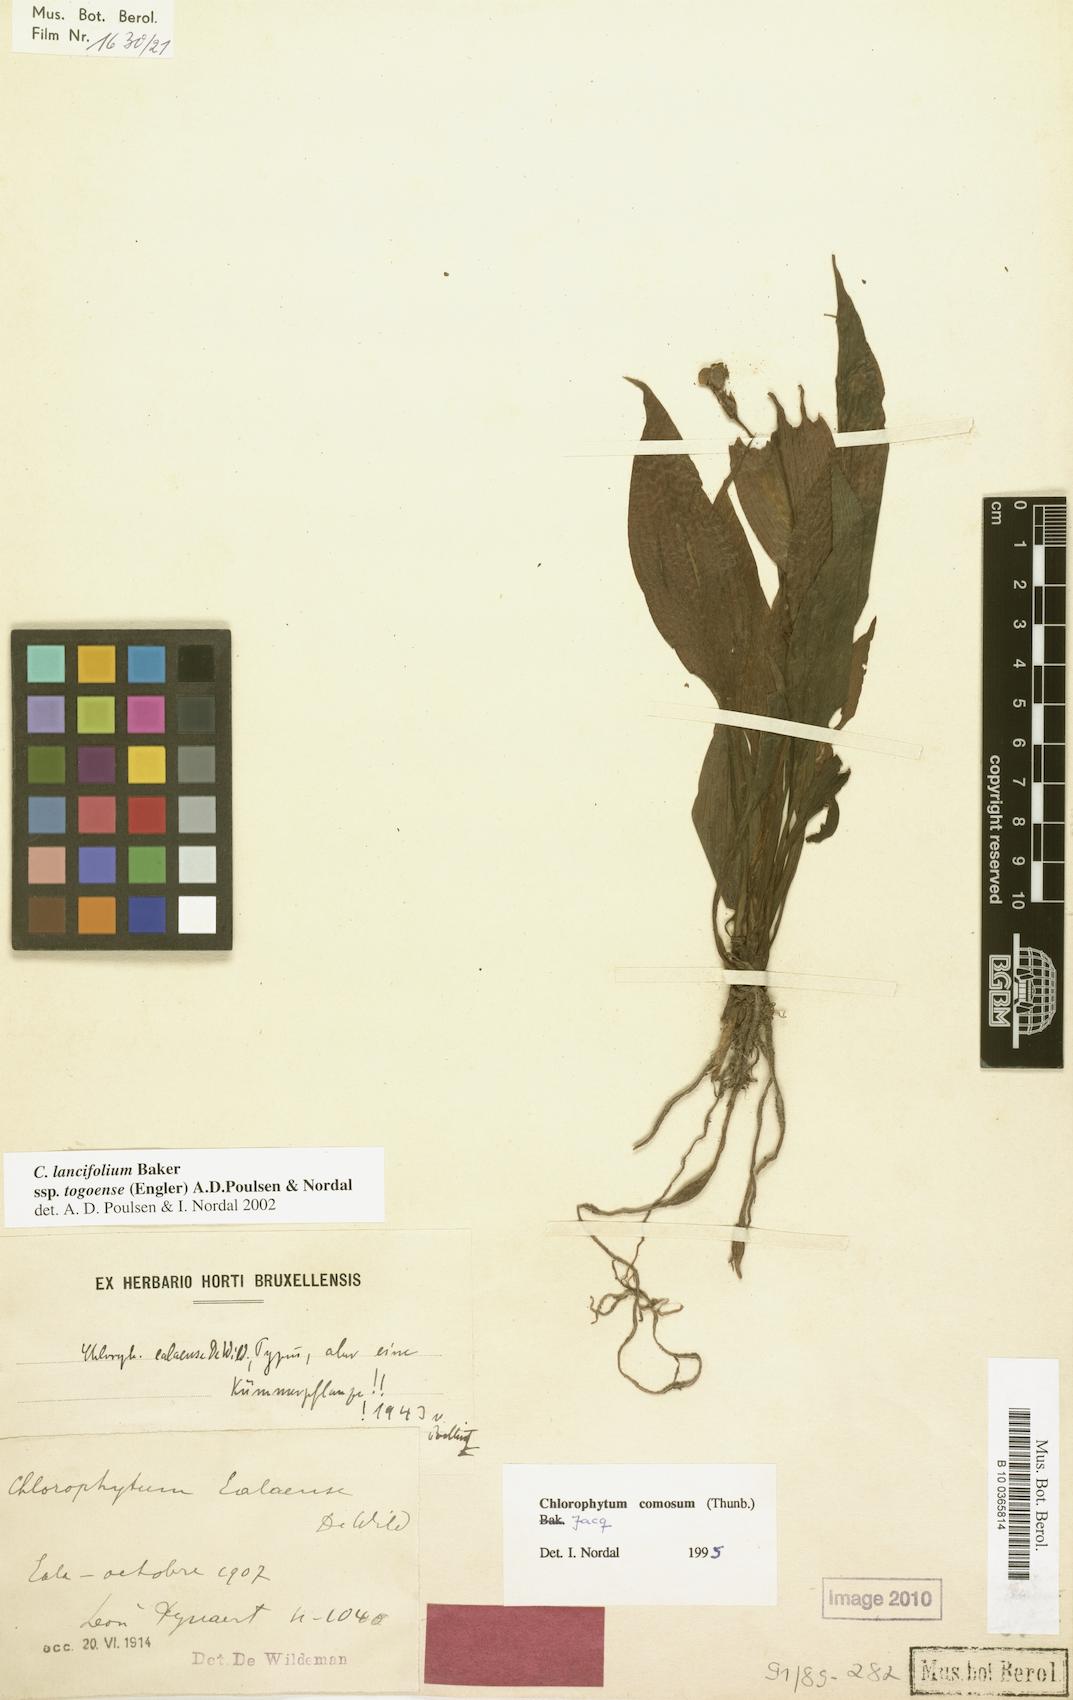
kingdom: Plantae
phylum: Tracheophyta
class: Liliopsida
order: Asparagales
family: Asparagaceae
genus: Chlorophytum
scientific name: Chlorophytum lancifolium
